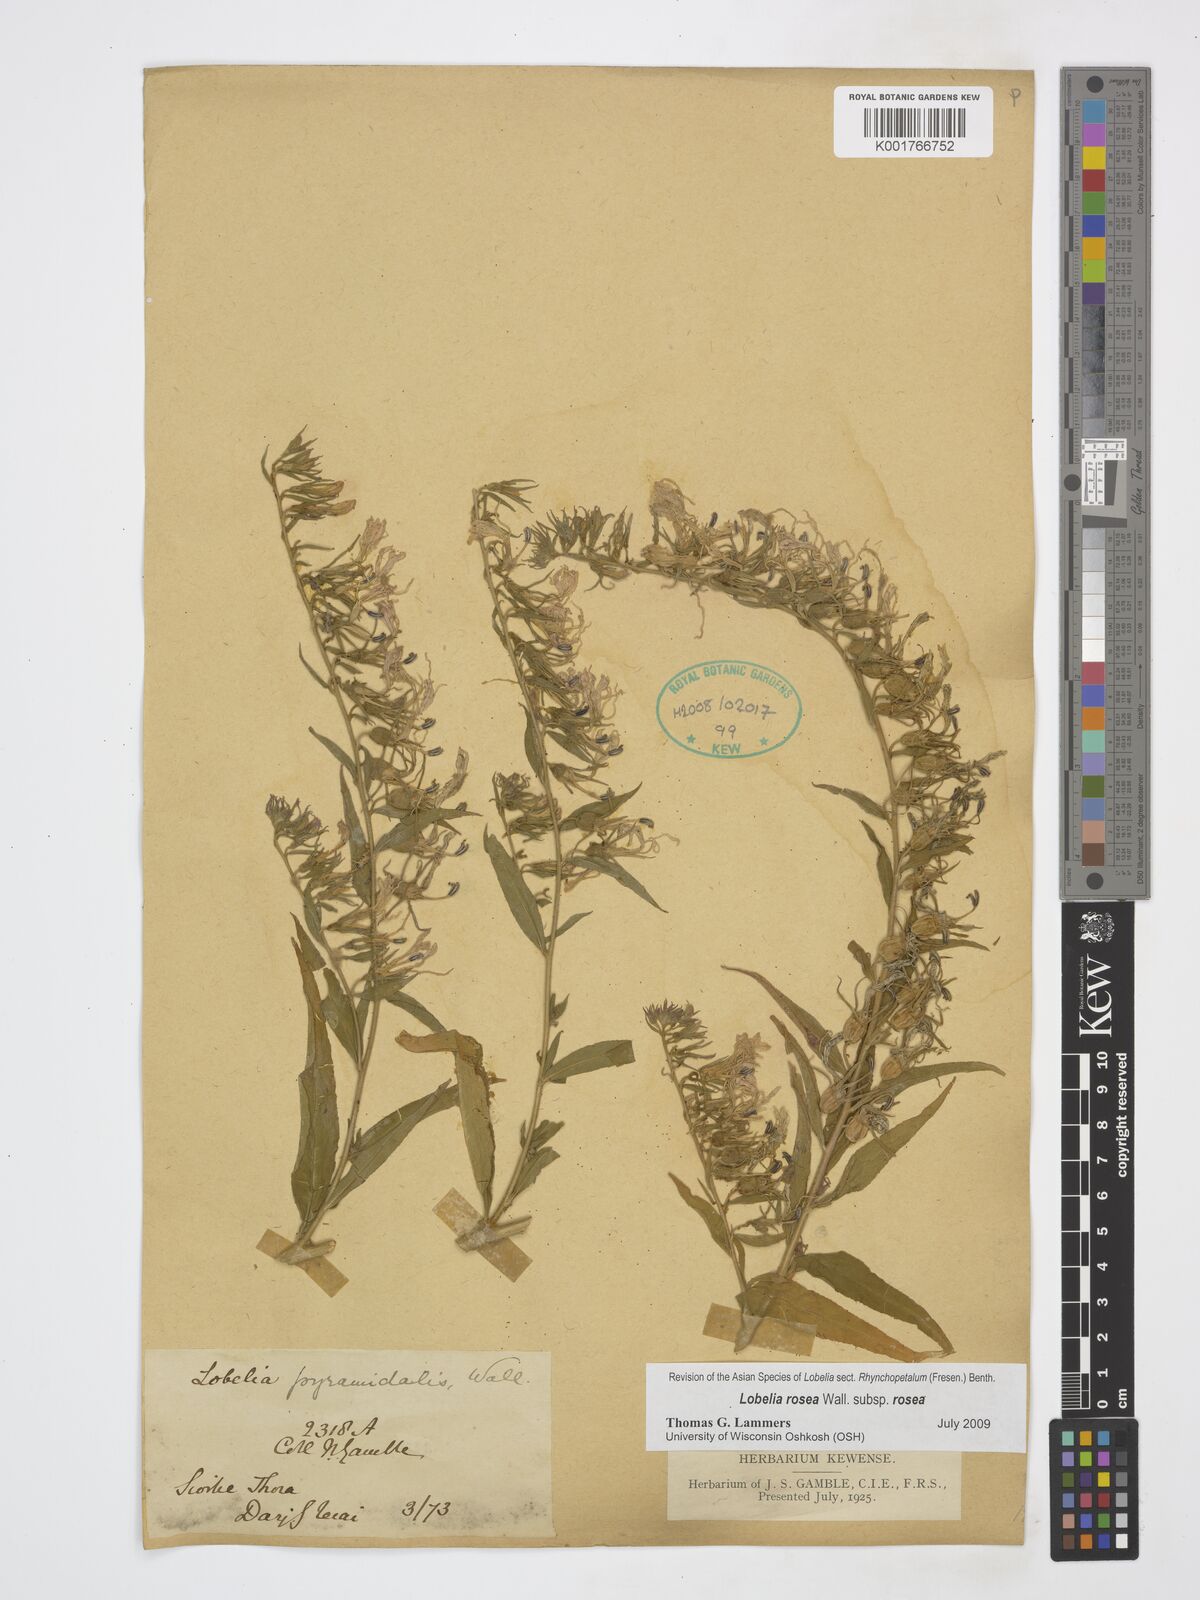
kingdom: Plantae
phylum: Tracheophyta
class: Magnoliopsida
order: Asterales
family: Campanulaceae
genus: Lobelia
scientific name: Lobelia rosea
